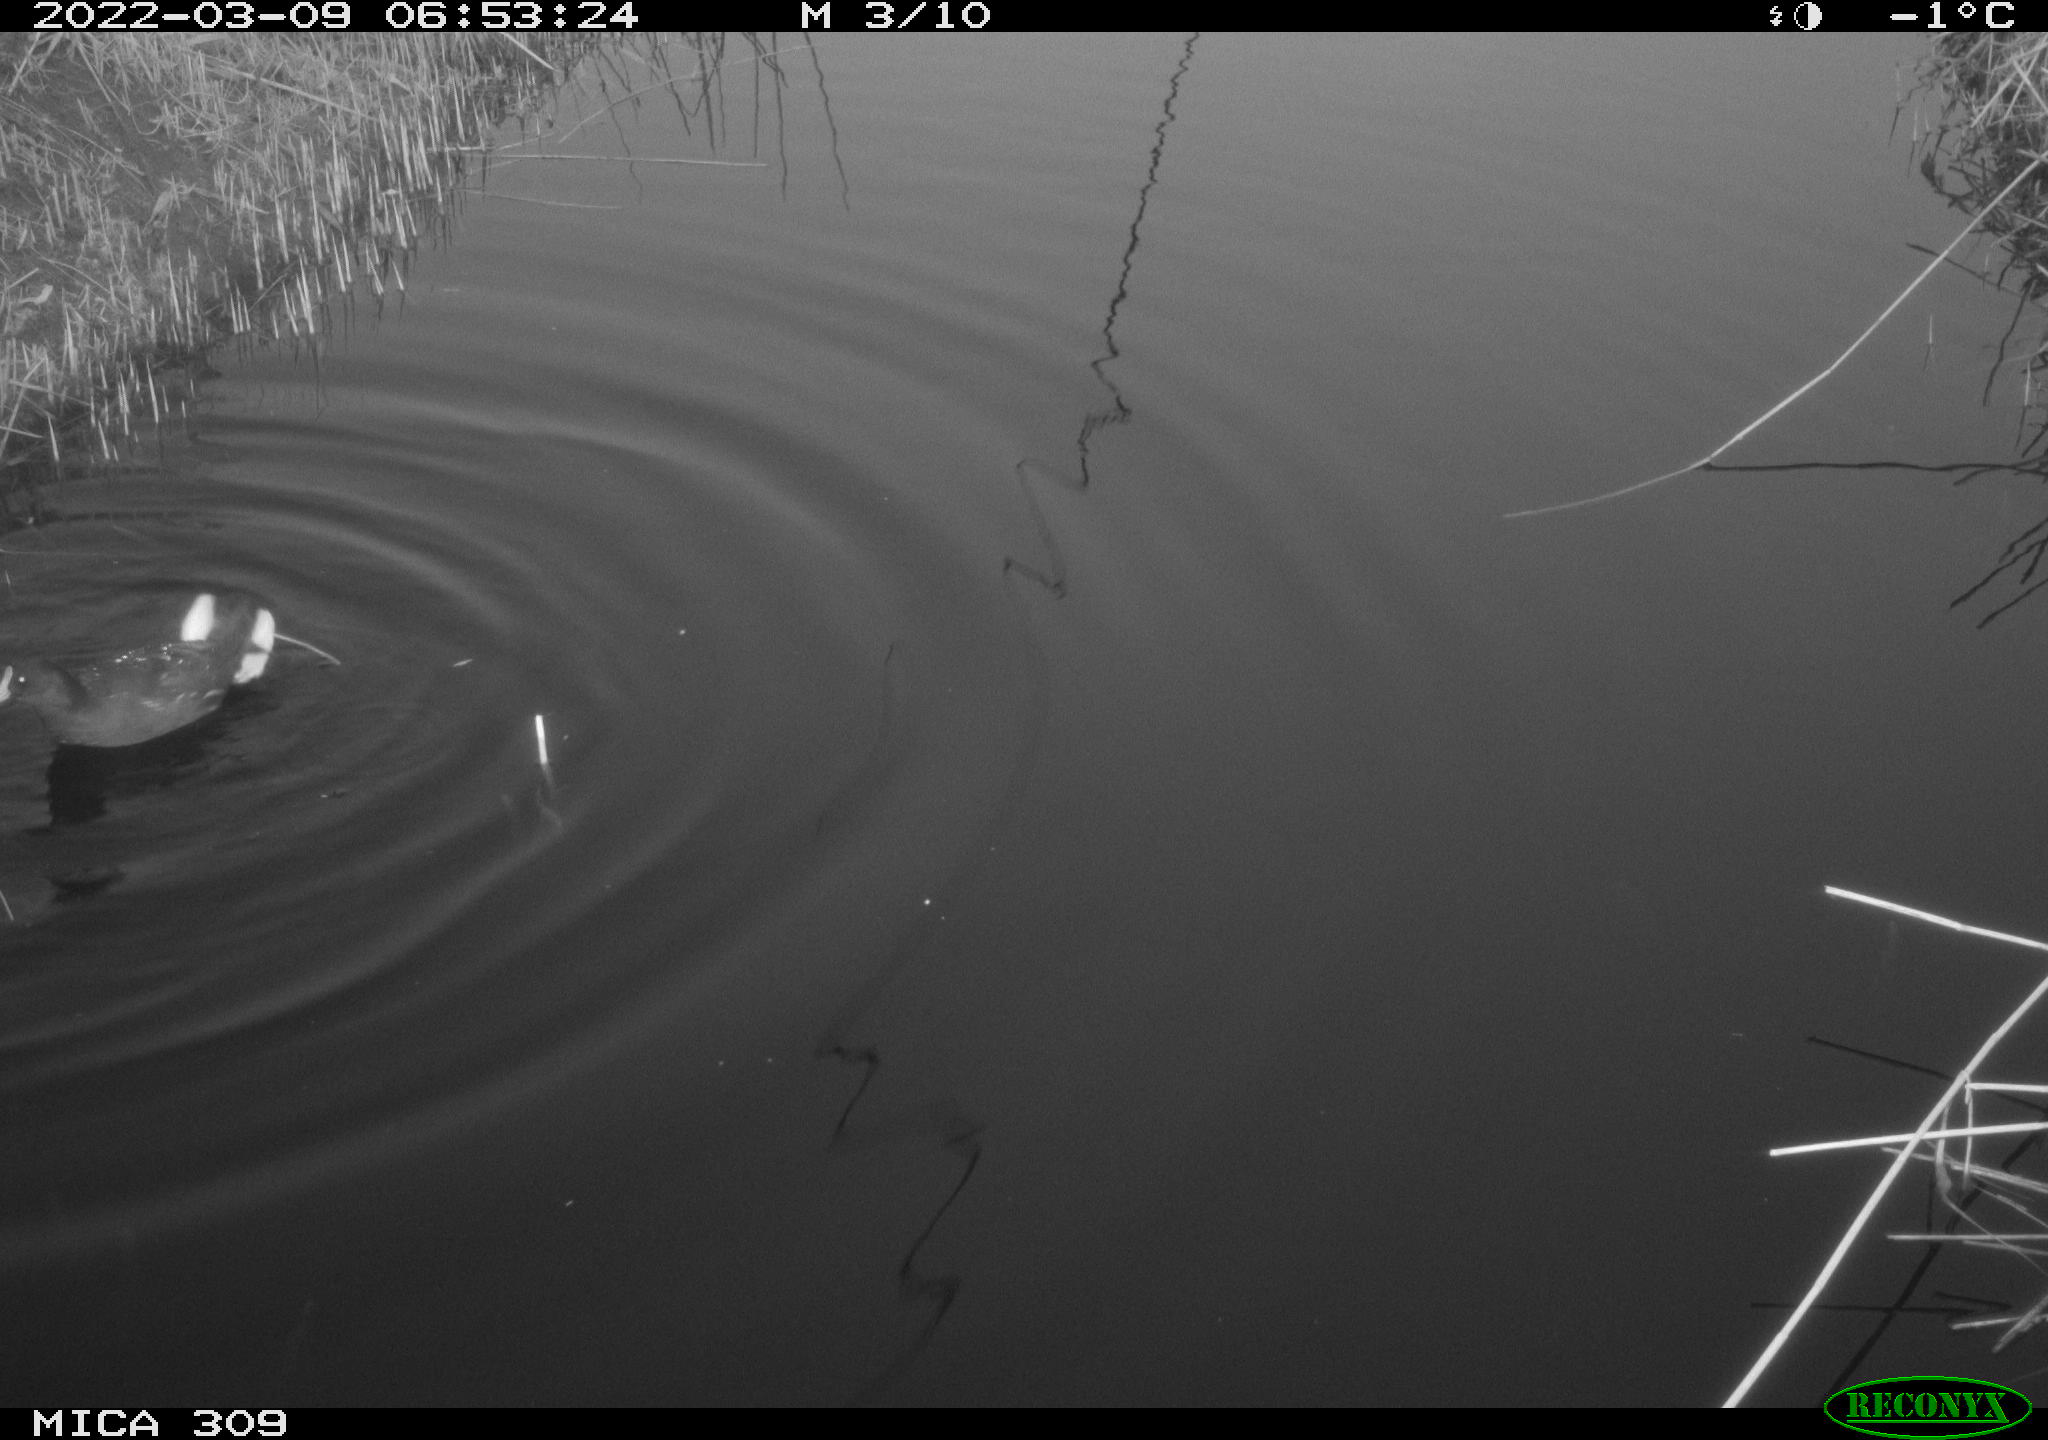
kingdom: Animalia
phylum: Chordata
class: Aves
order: Gruiformes
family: Rallidae
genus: Gallinula
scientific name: Gallinula chloropus
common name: Common moorhen
